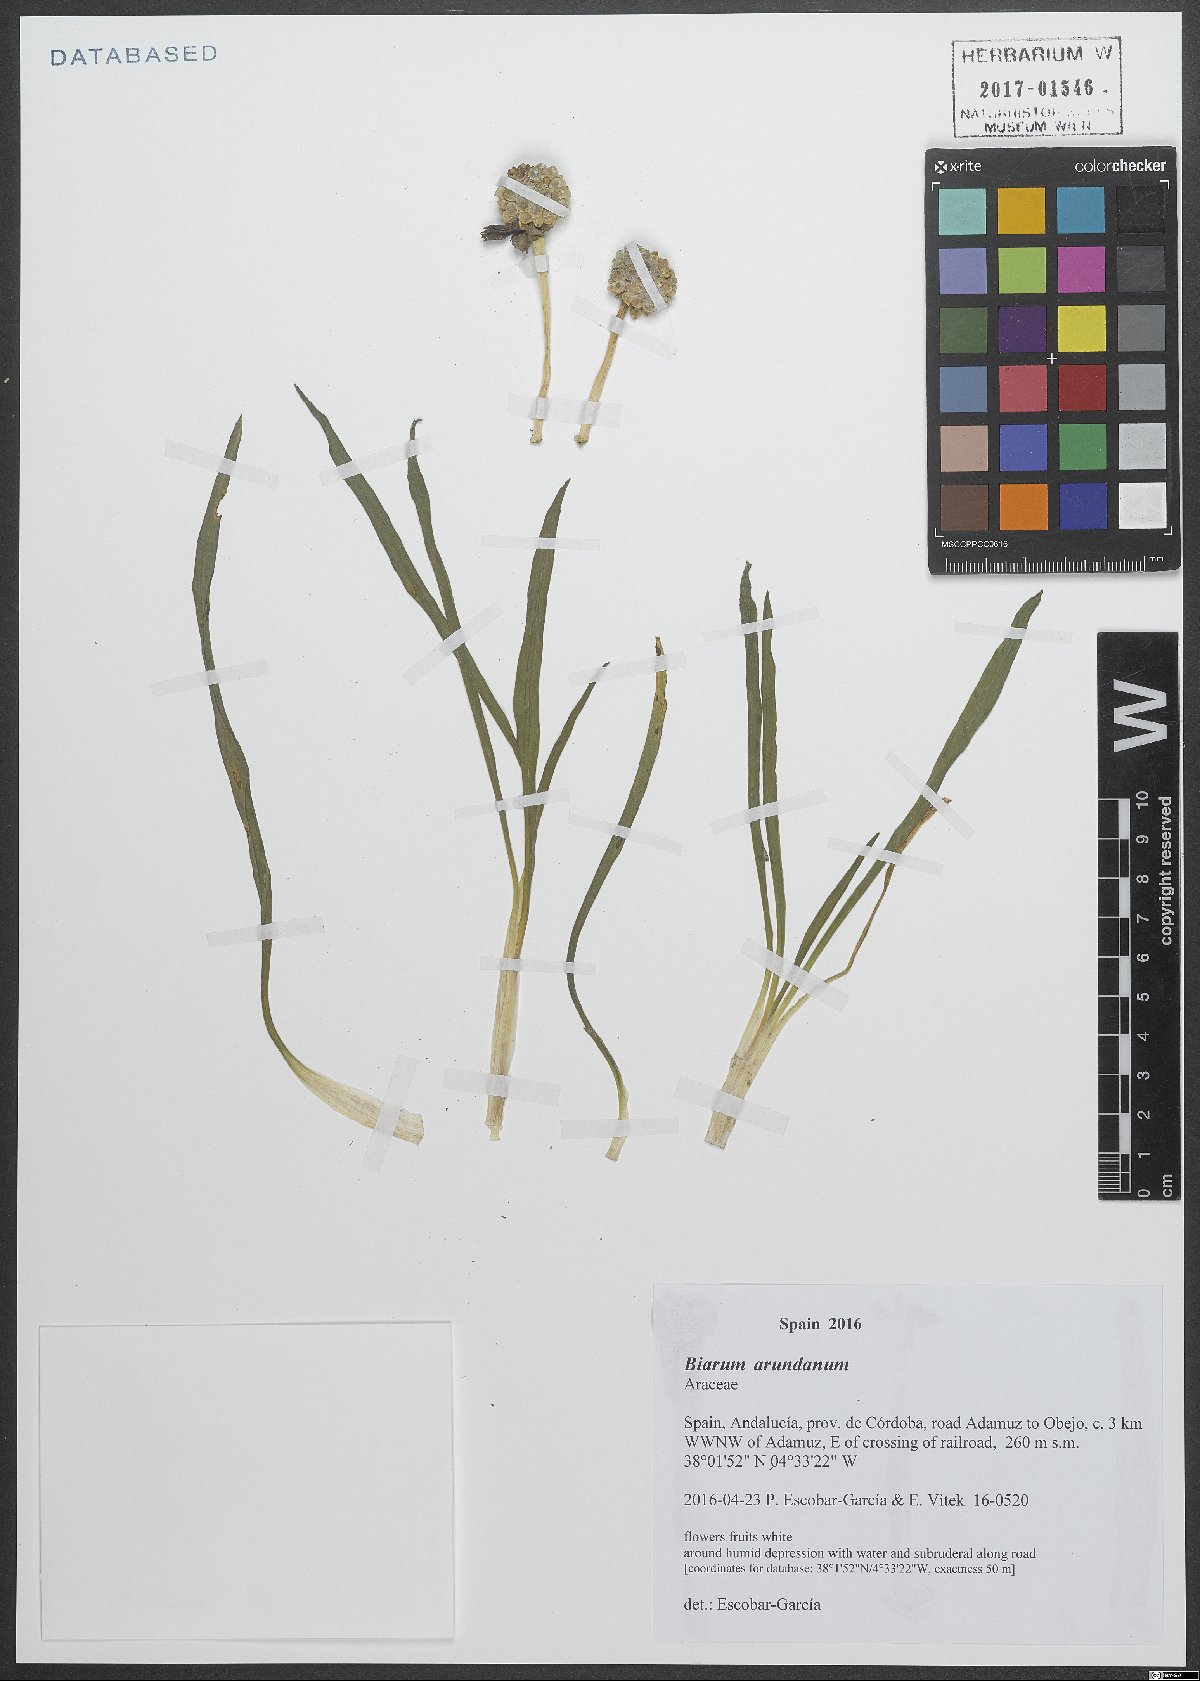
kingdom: Plantae
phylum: Tracheophyta
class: Liliopsida
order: Alismatales
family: Araceae
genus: Biarum
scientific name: Biarum tenuifolium
